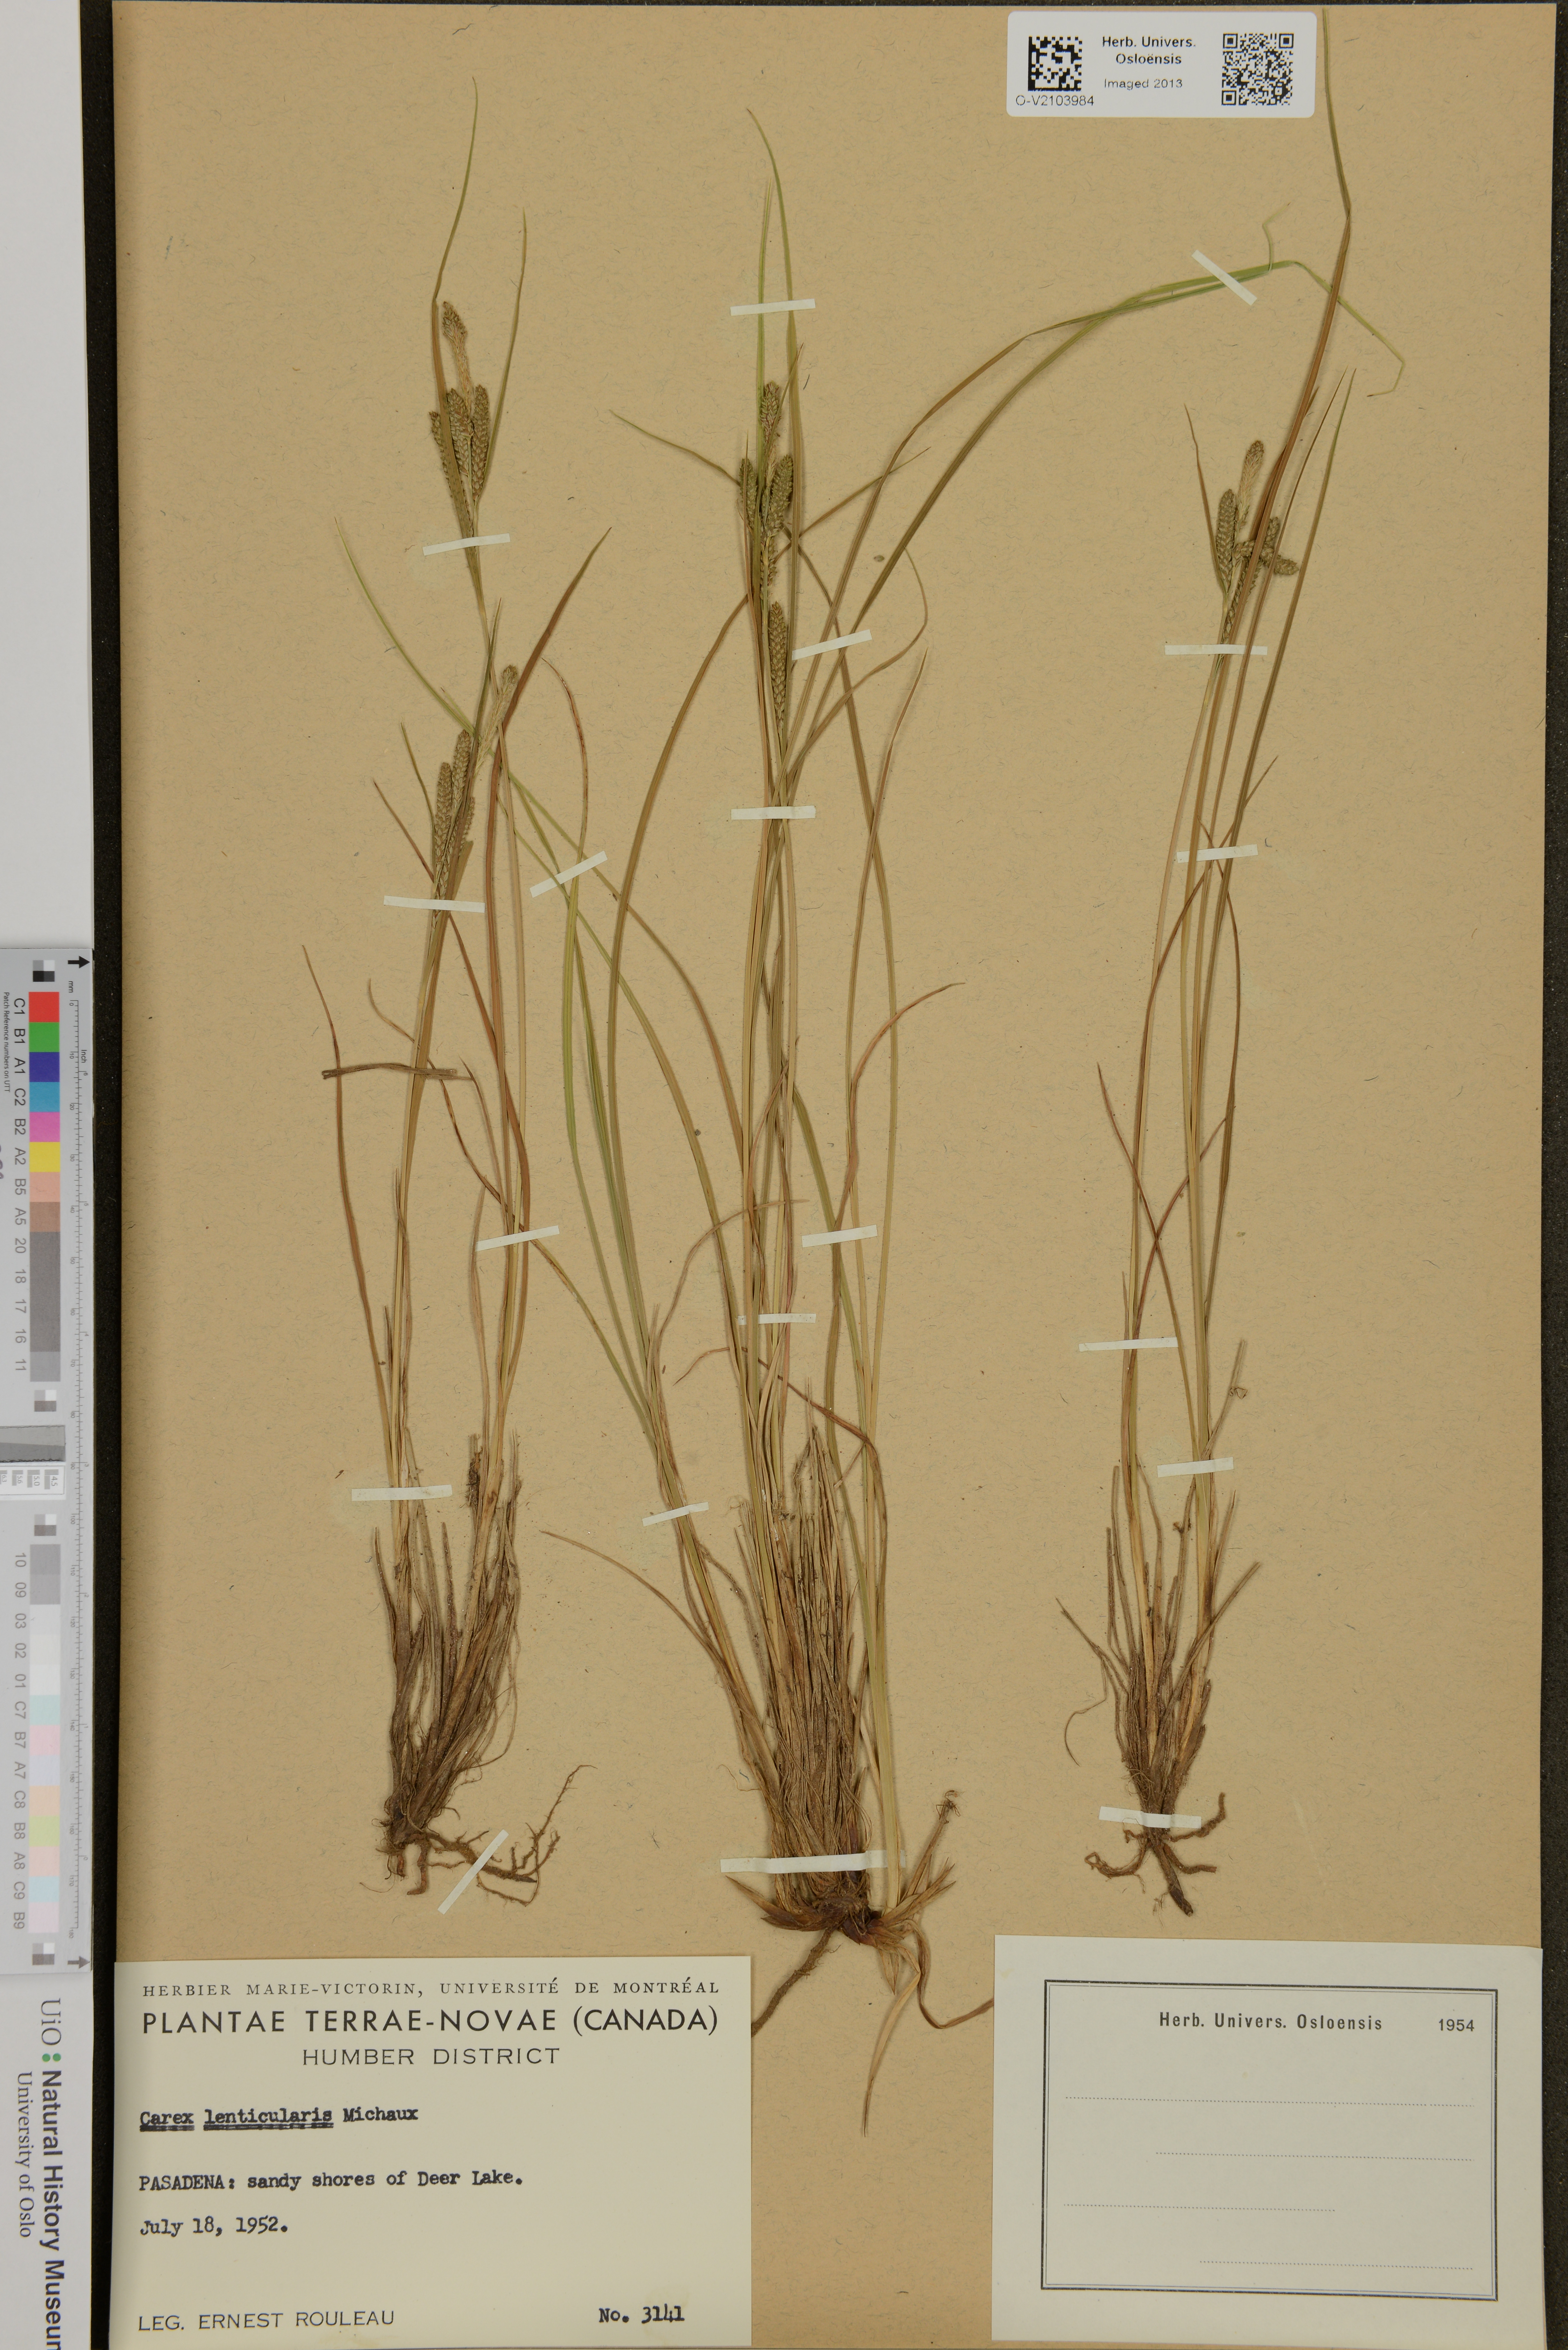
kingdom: Plantae
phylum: Tracheophyta
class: Liliopsida
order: Poales
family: Cyperaceae
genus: Carex
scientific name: Carex lenticularis
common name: Lakeshore sedge
